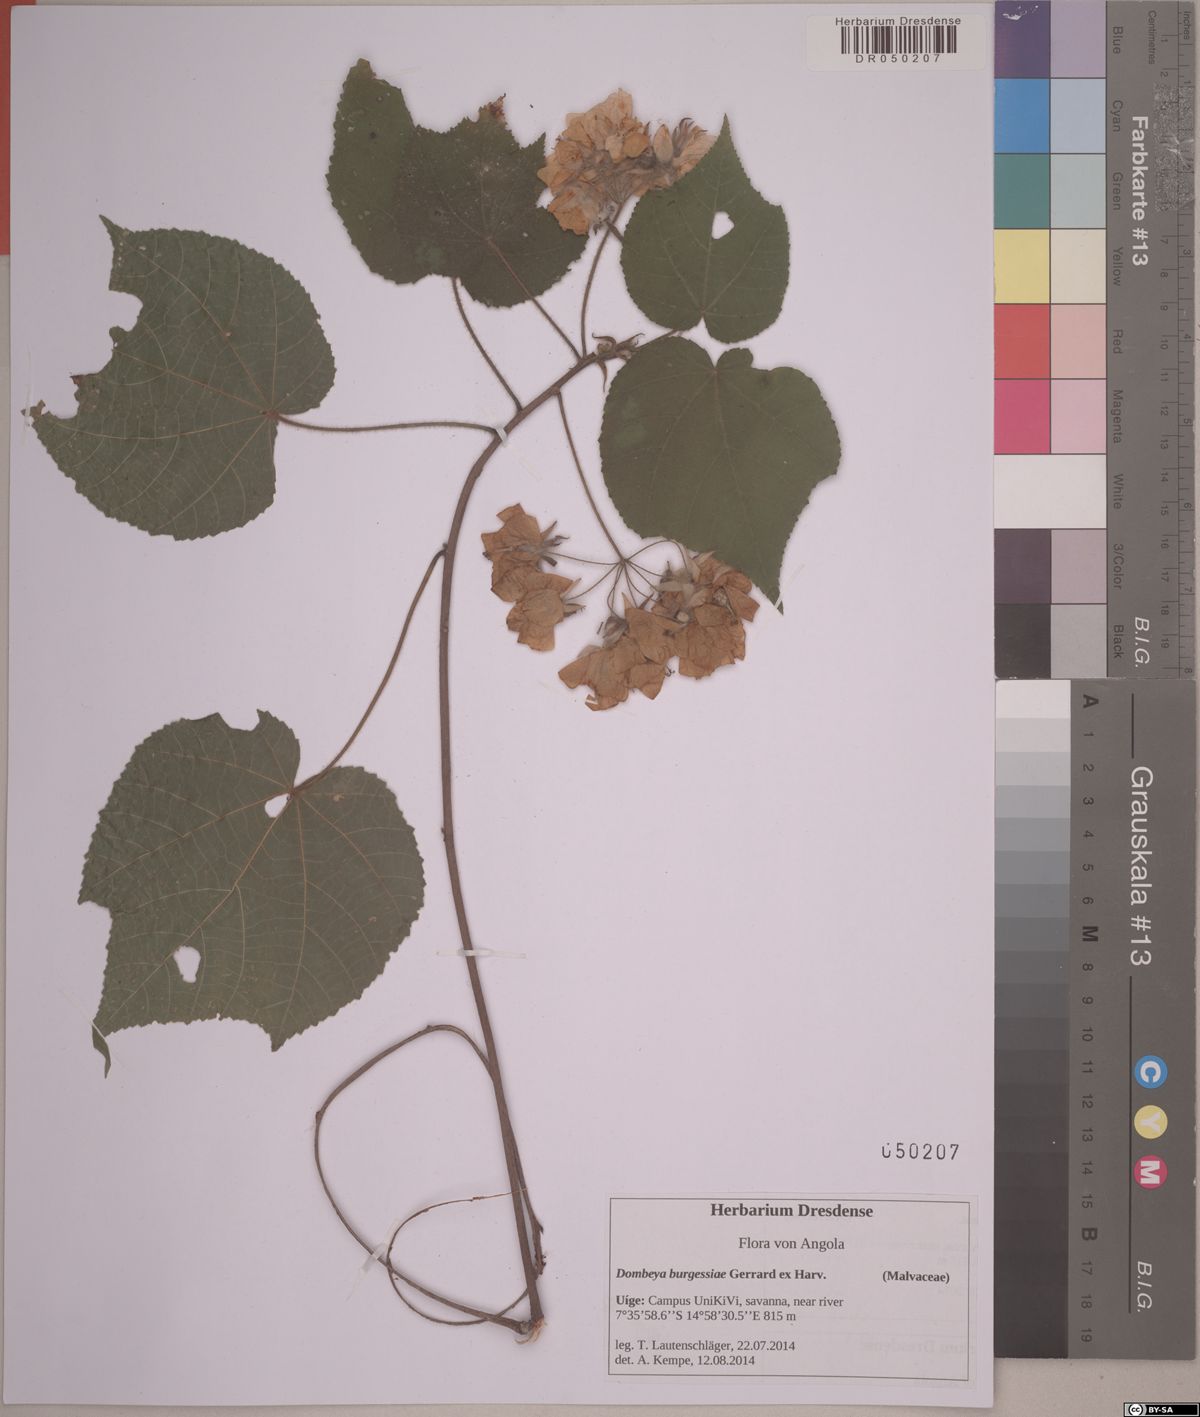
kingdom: Plantae
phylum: Tracheophyta
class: Magnoliopsida
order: Malvales
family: Malvaceae
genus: Dombeya
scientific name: Dombeya burgessiae
